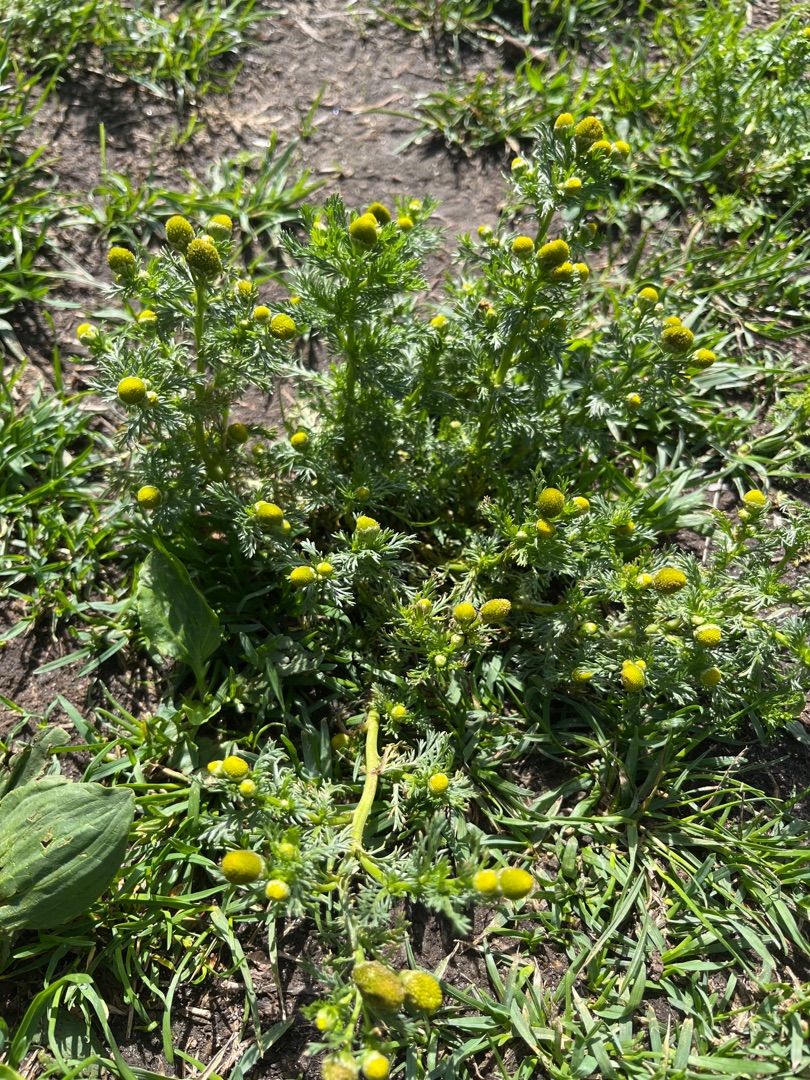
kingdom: Plantae
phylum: Tracheophyta
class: Magnoliopsida
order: Asterales
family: Asteraceae
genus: Matricaria
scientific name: Matricaria discoidea
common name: Skive-kamille
